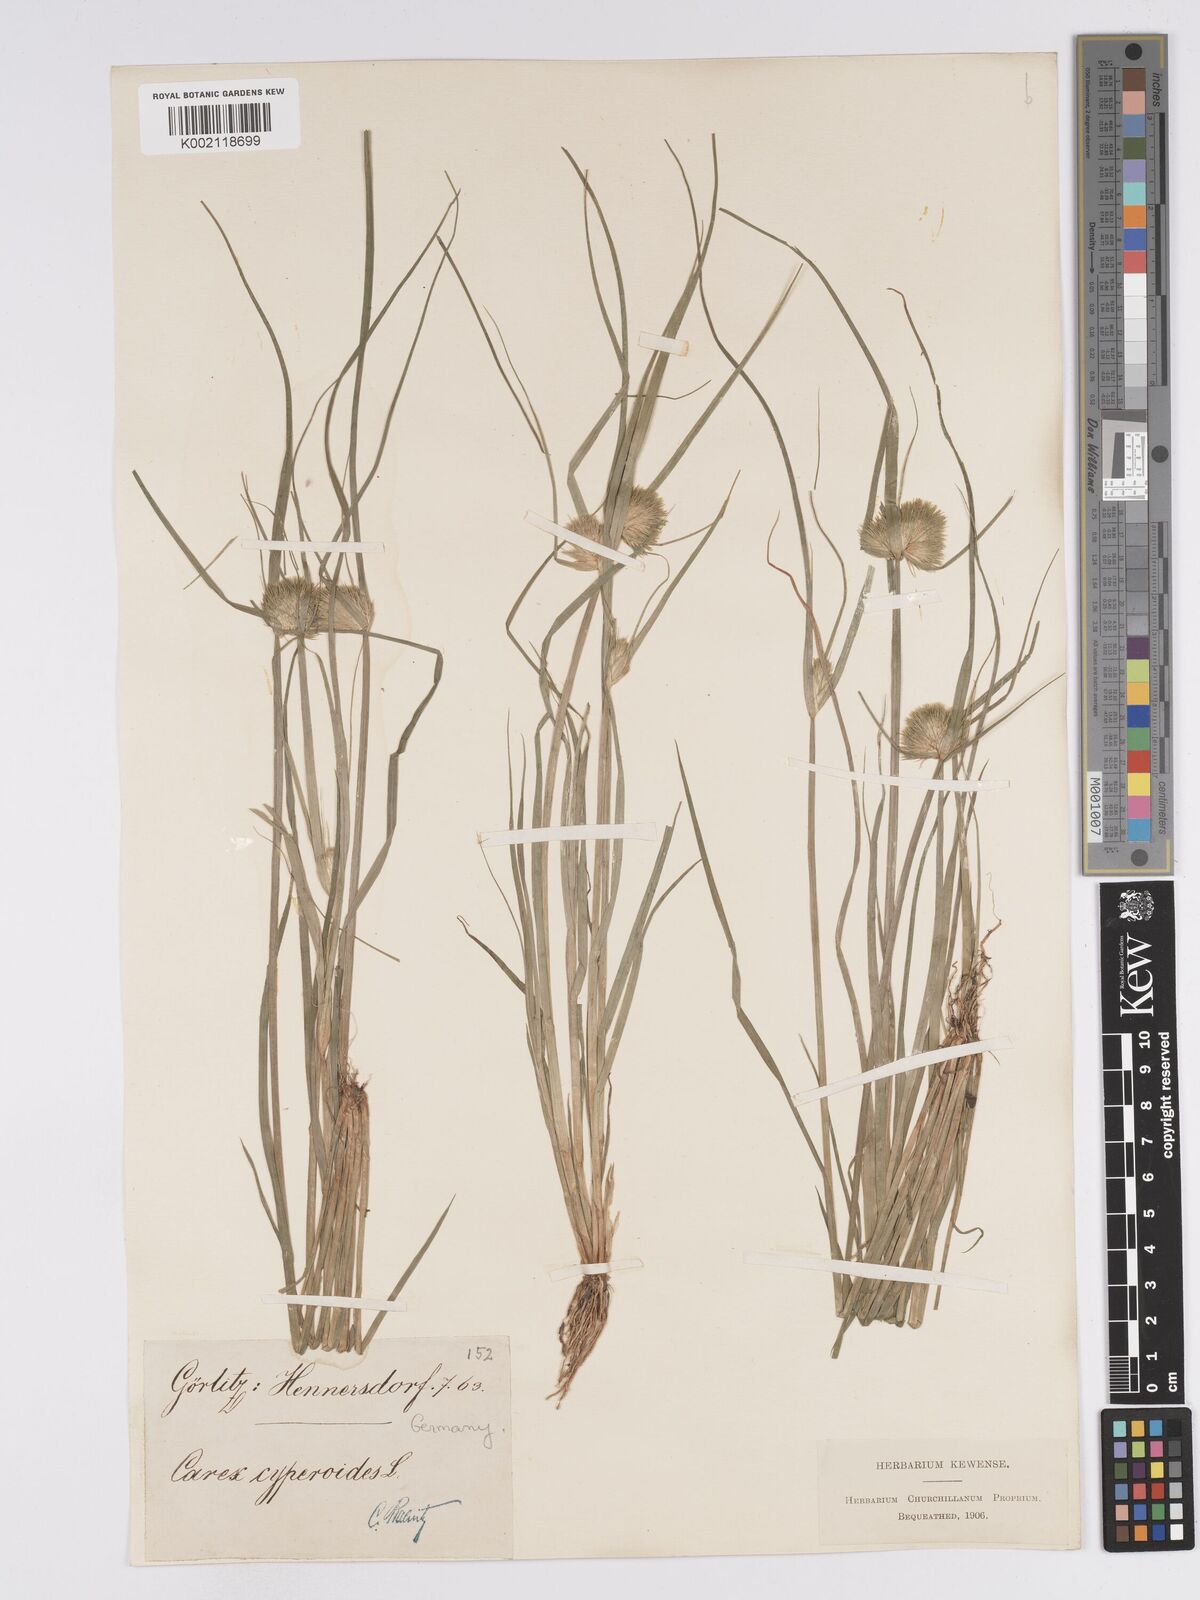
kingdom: Plantae
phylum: Tracheophyta
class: Liliopsida
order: Poales
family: Cyperaceae
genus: Carex
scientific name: Carex bohemica
